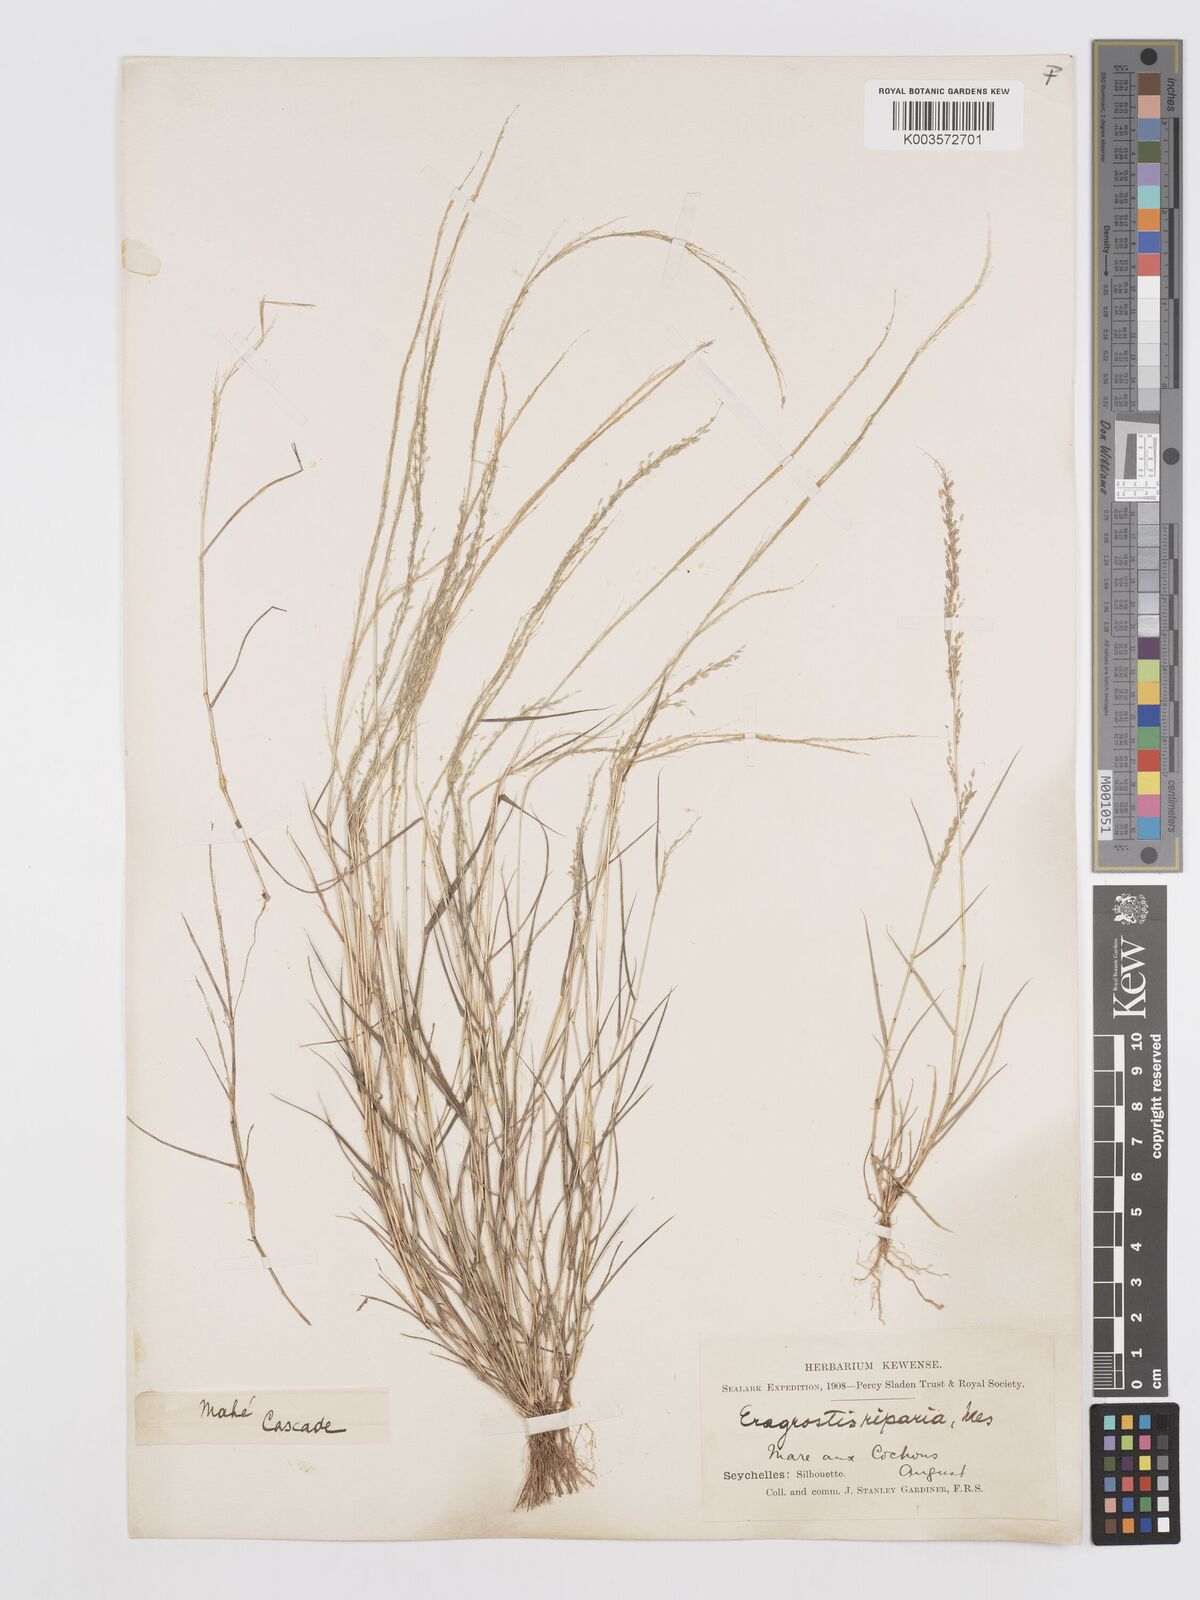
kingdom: Plantae
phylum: Tracheophyta
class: Liliopsida
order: Poales
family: Poaceae
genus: Eragrostis
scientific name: Eragrostis tenella
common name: Japanese lovegrass
